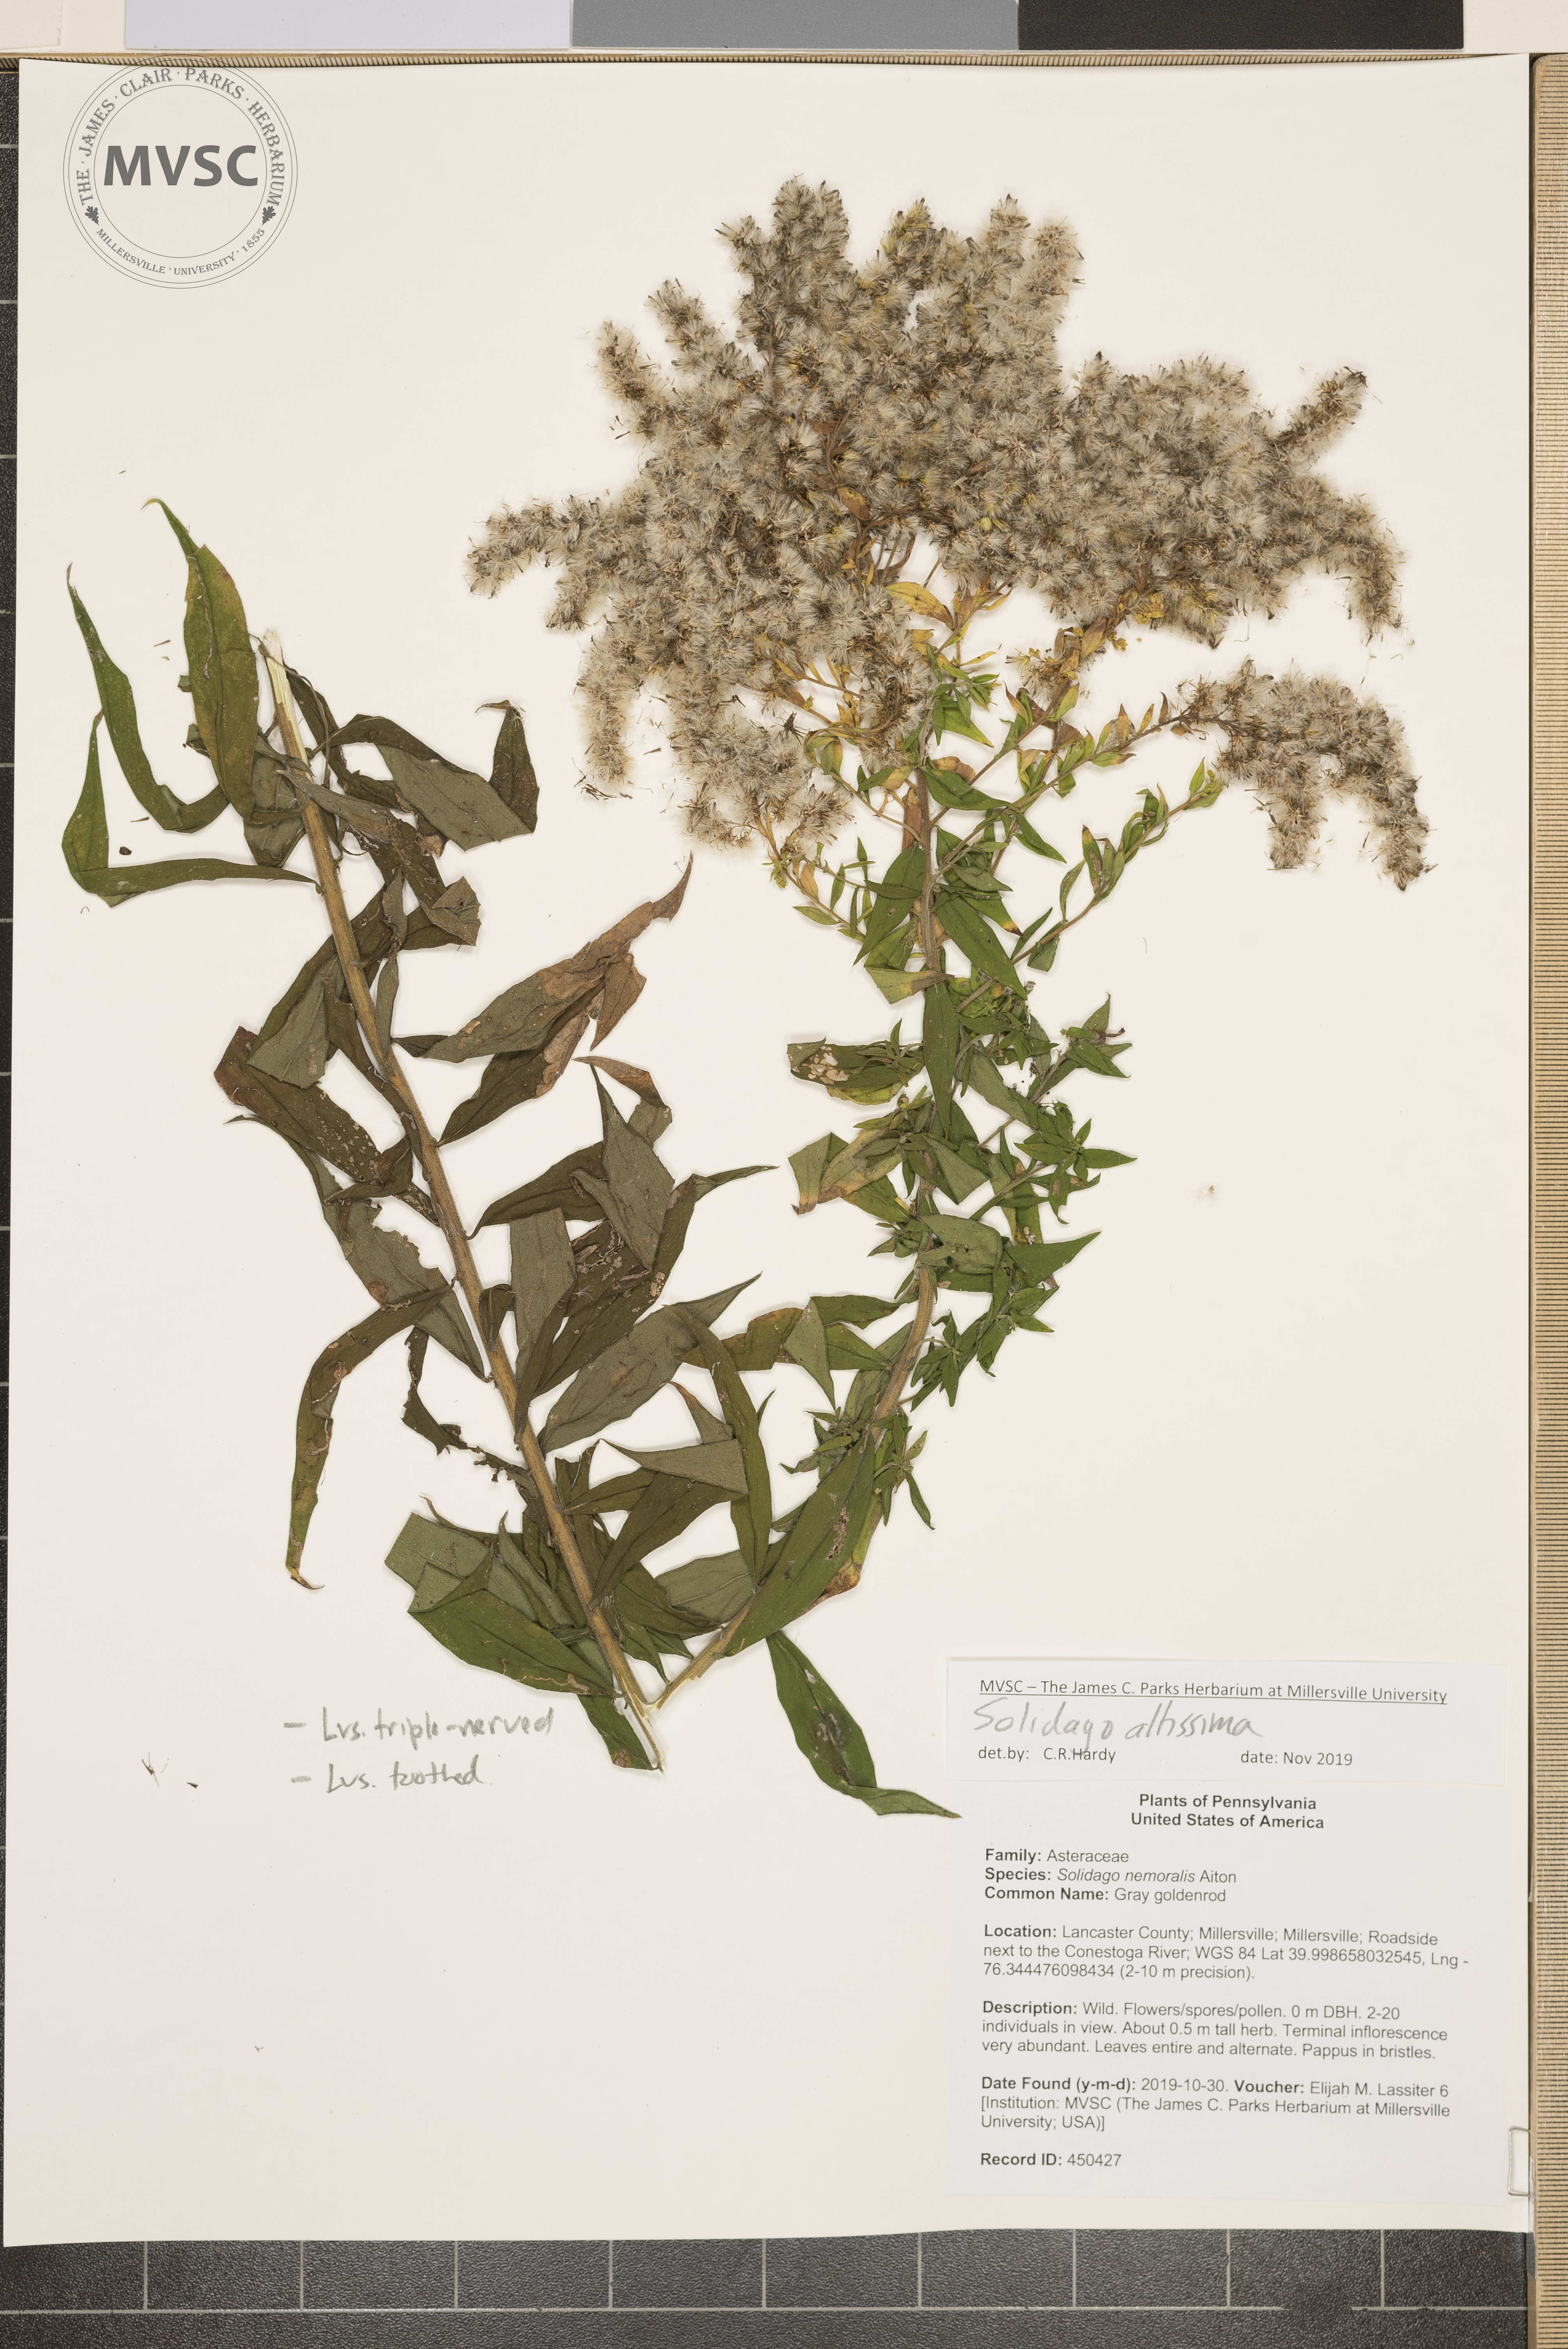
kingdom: Plantae
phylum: Tracheophyta
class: Magnoliopsida
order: Asterales
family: Asteraceae
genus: Solidago
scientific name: Solidago altissima
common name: goldenrod
